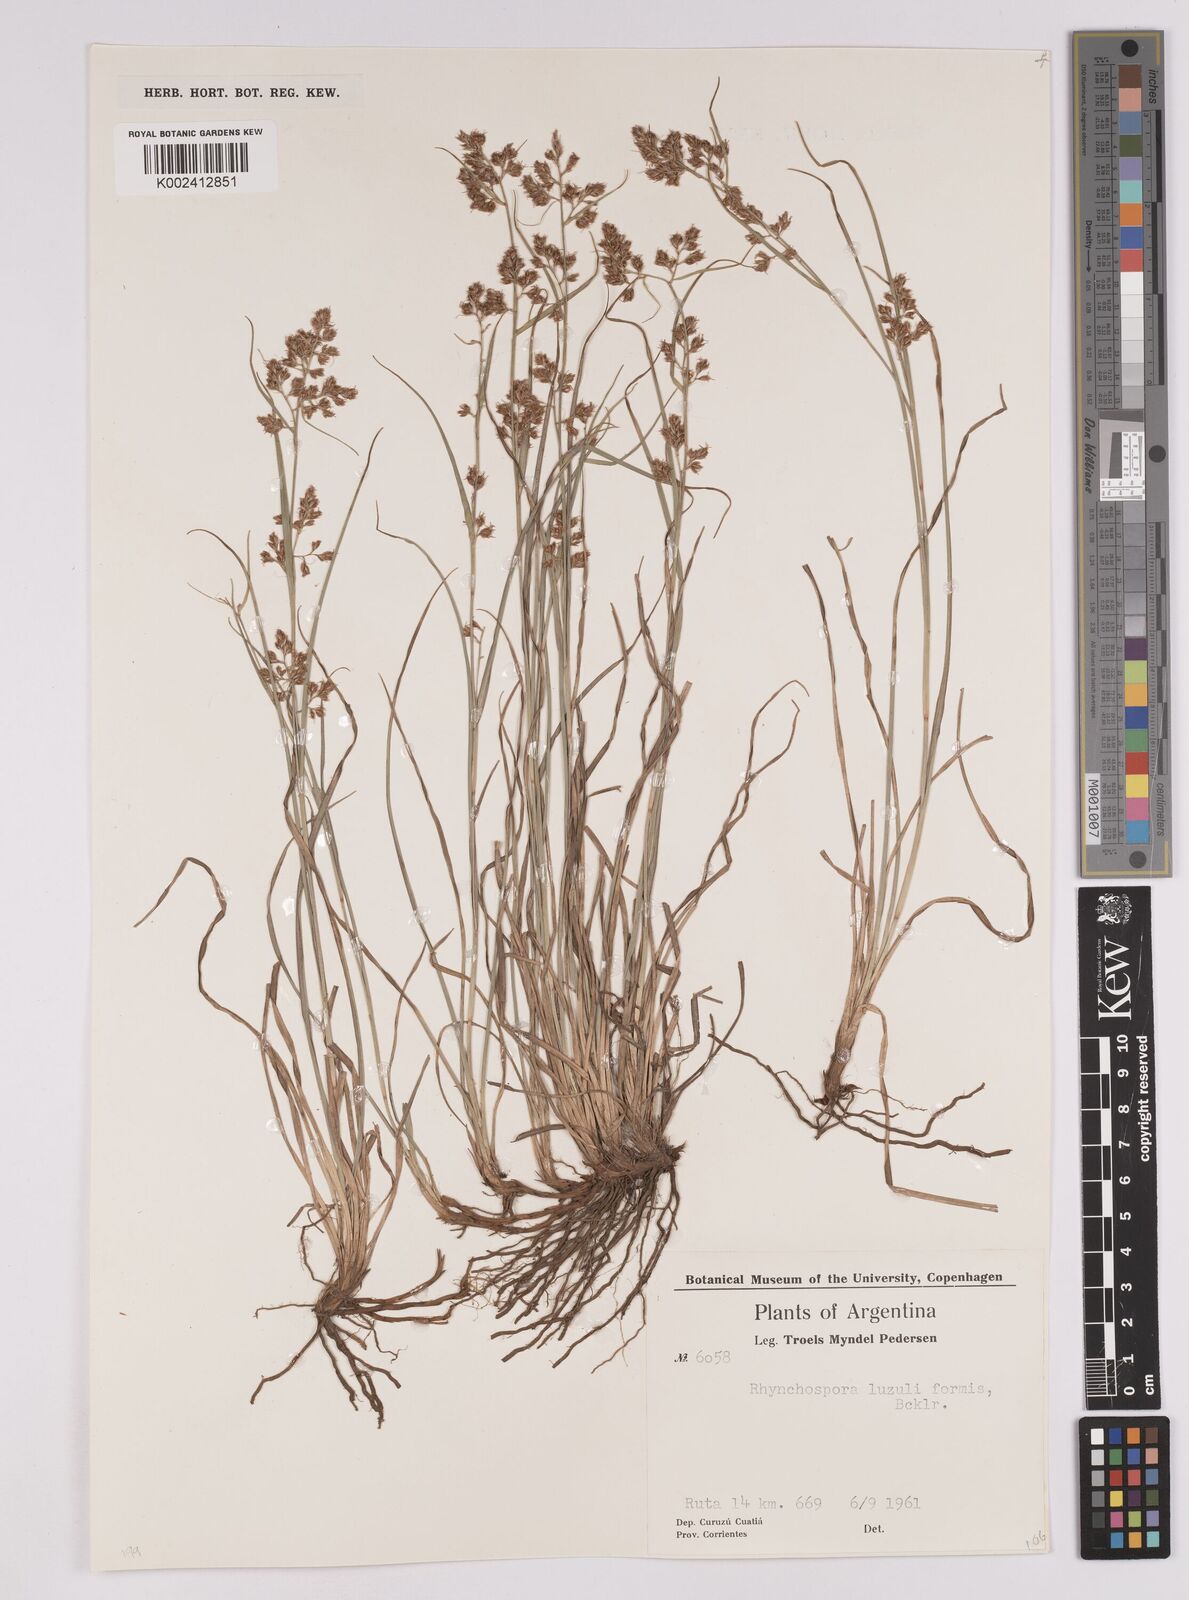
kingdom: Plantae
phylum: Tracheophyta
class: Liliopsida
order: Poales
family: Cyperaceae
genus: Rhynchospora
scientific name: Rhynchospora megapotamica
